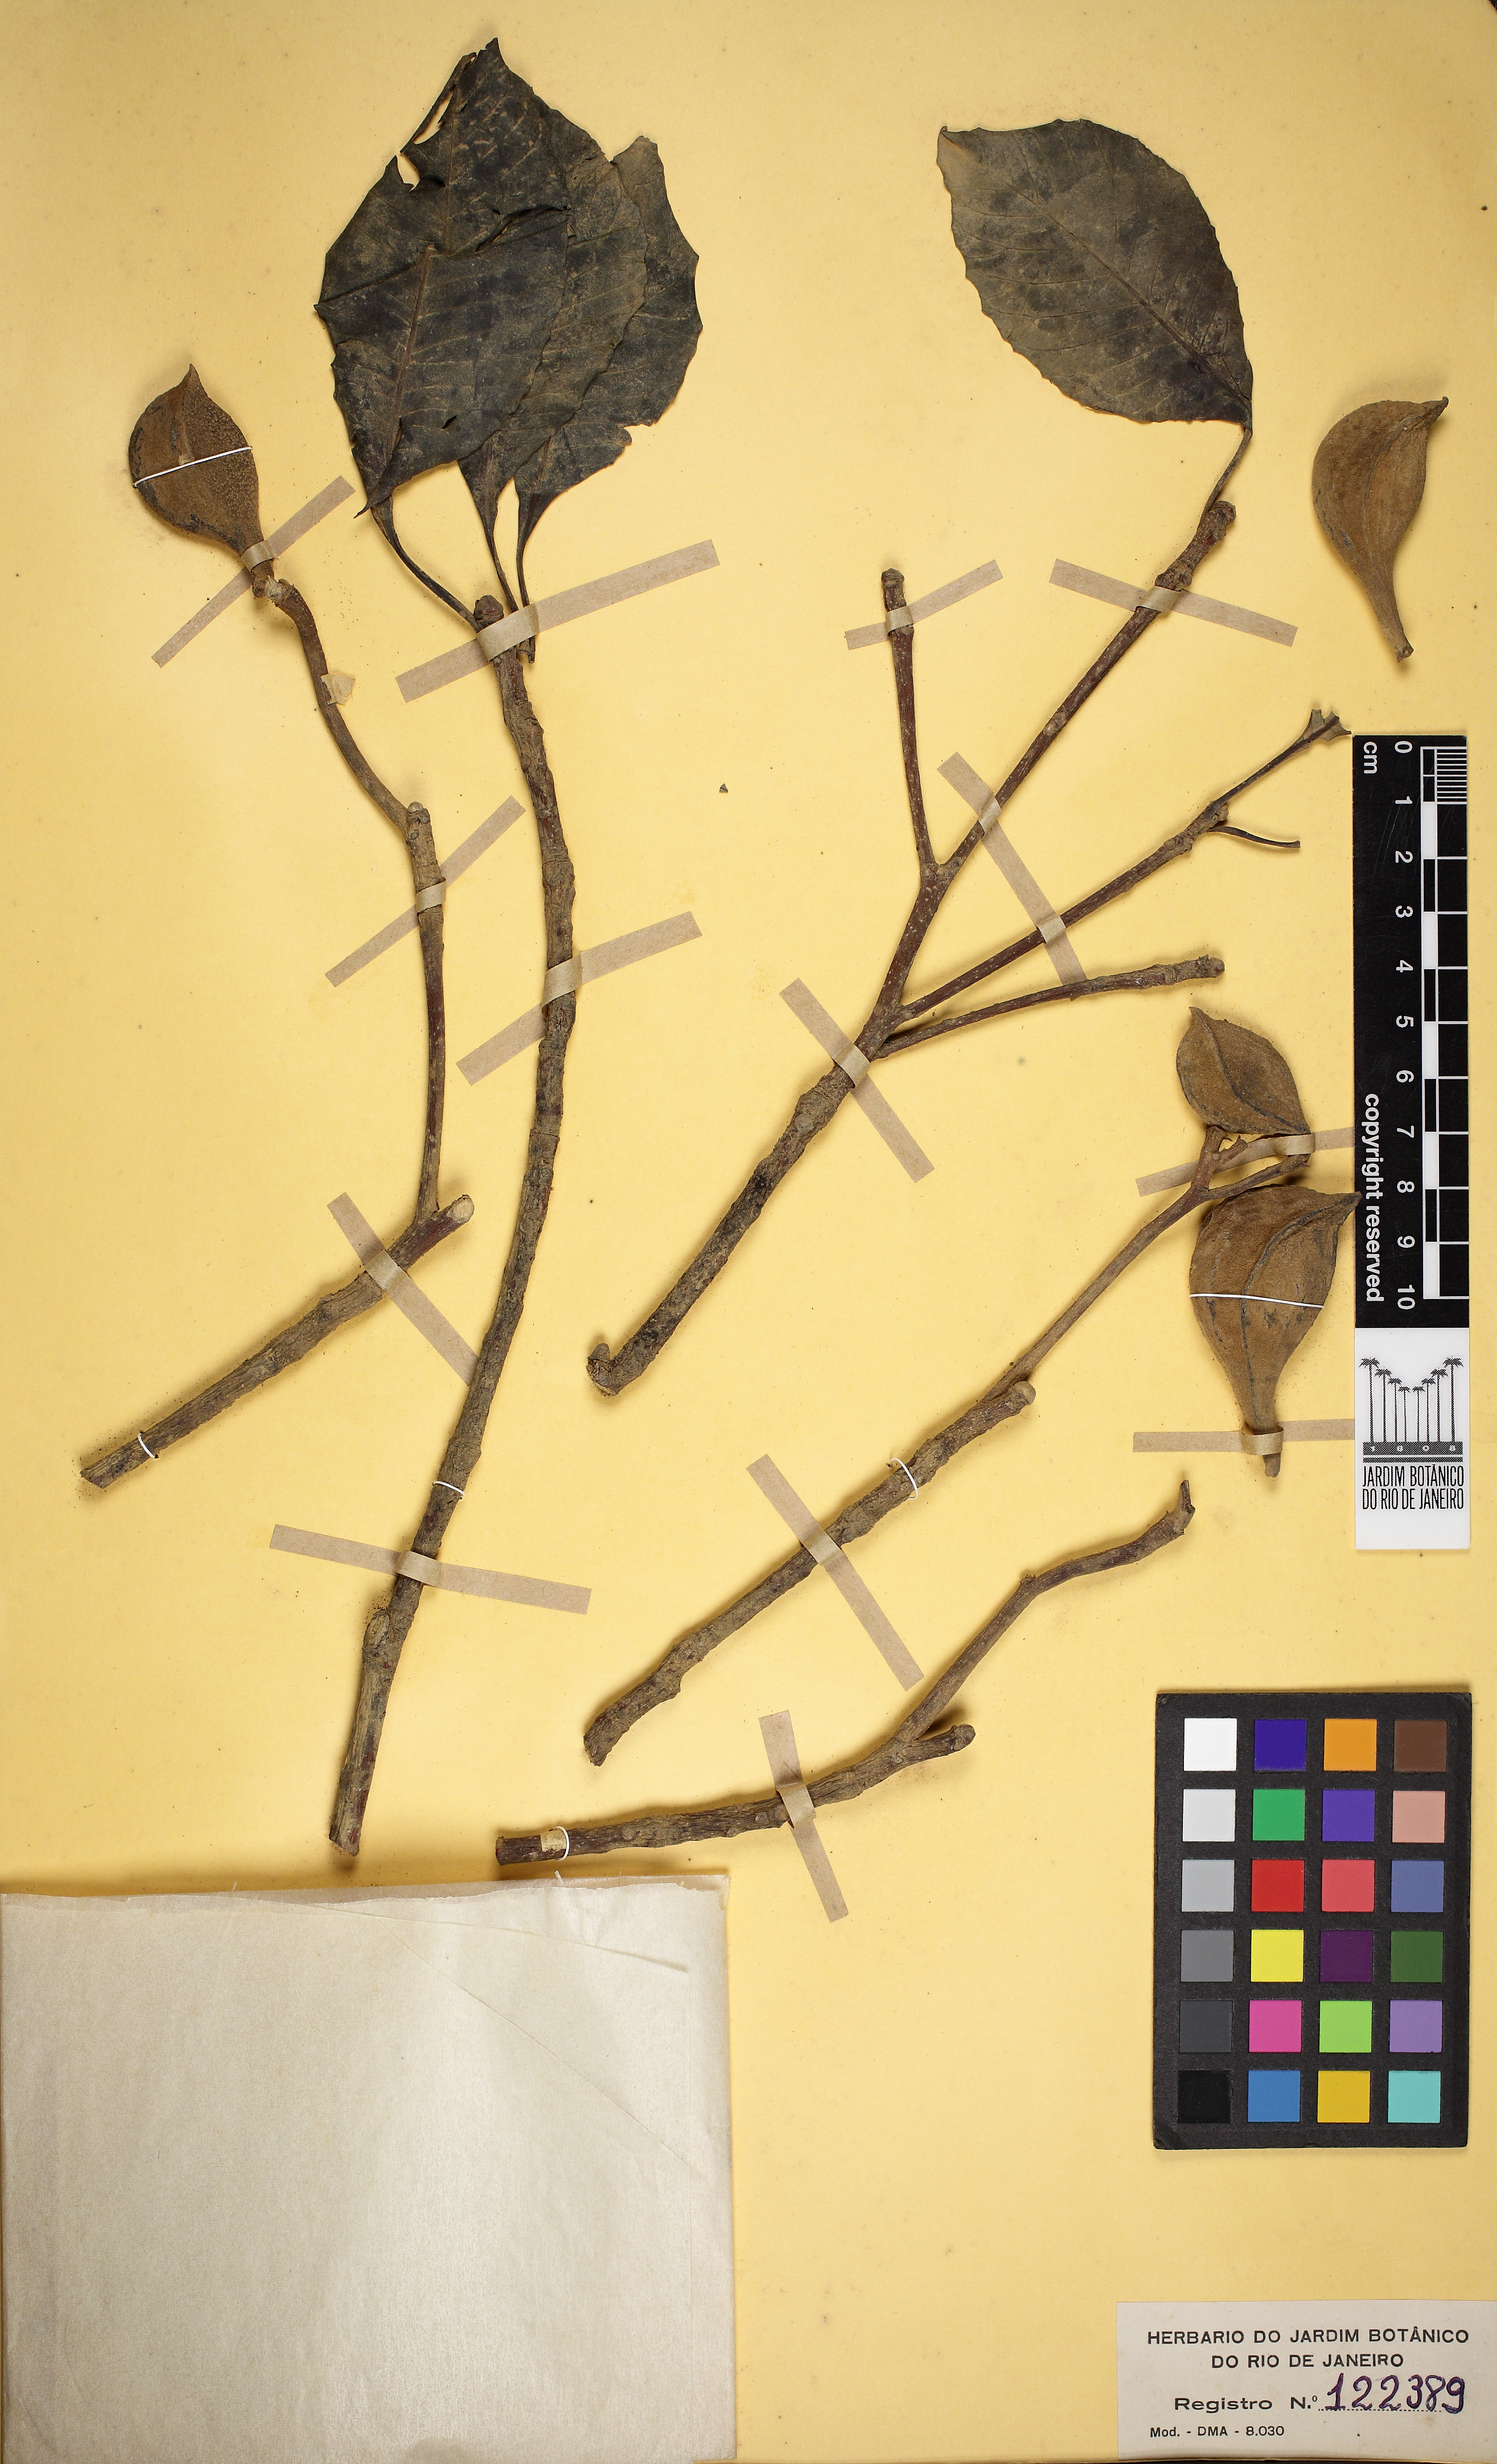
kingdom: Plantae
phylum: Tracheophyta
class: Magnoliopsida
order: Gentianales
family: Apocynaceae
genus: Aspidosperma
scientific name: Aspidosperma subincanum
